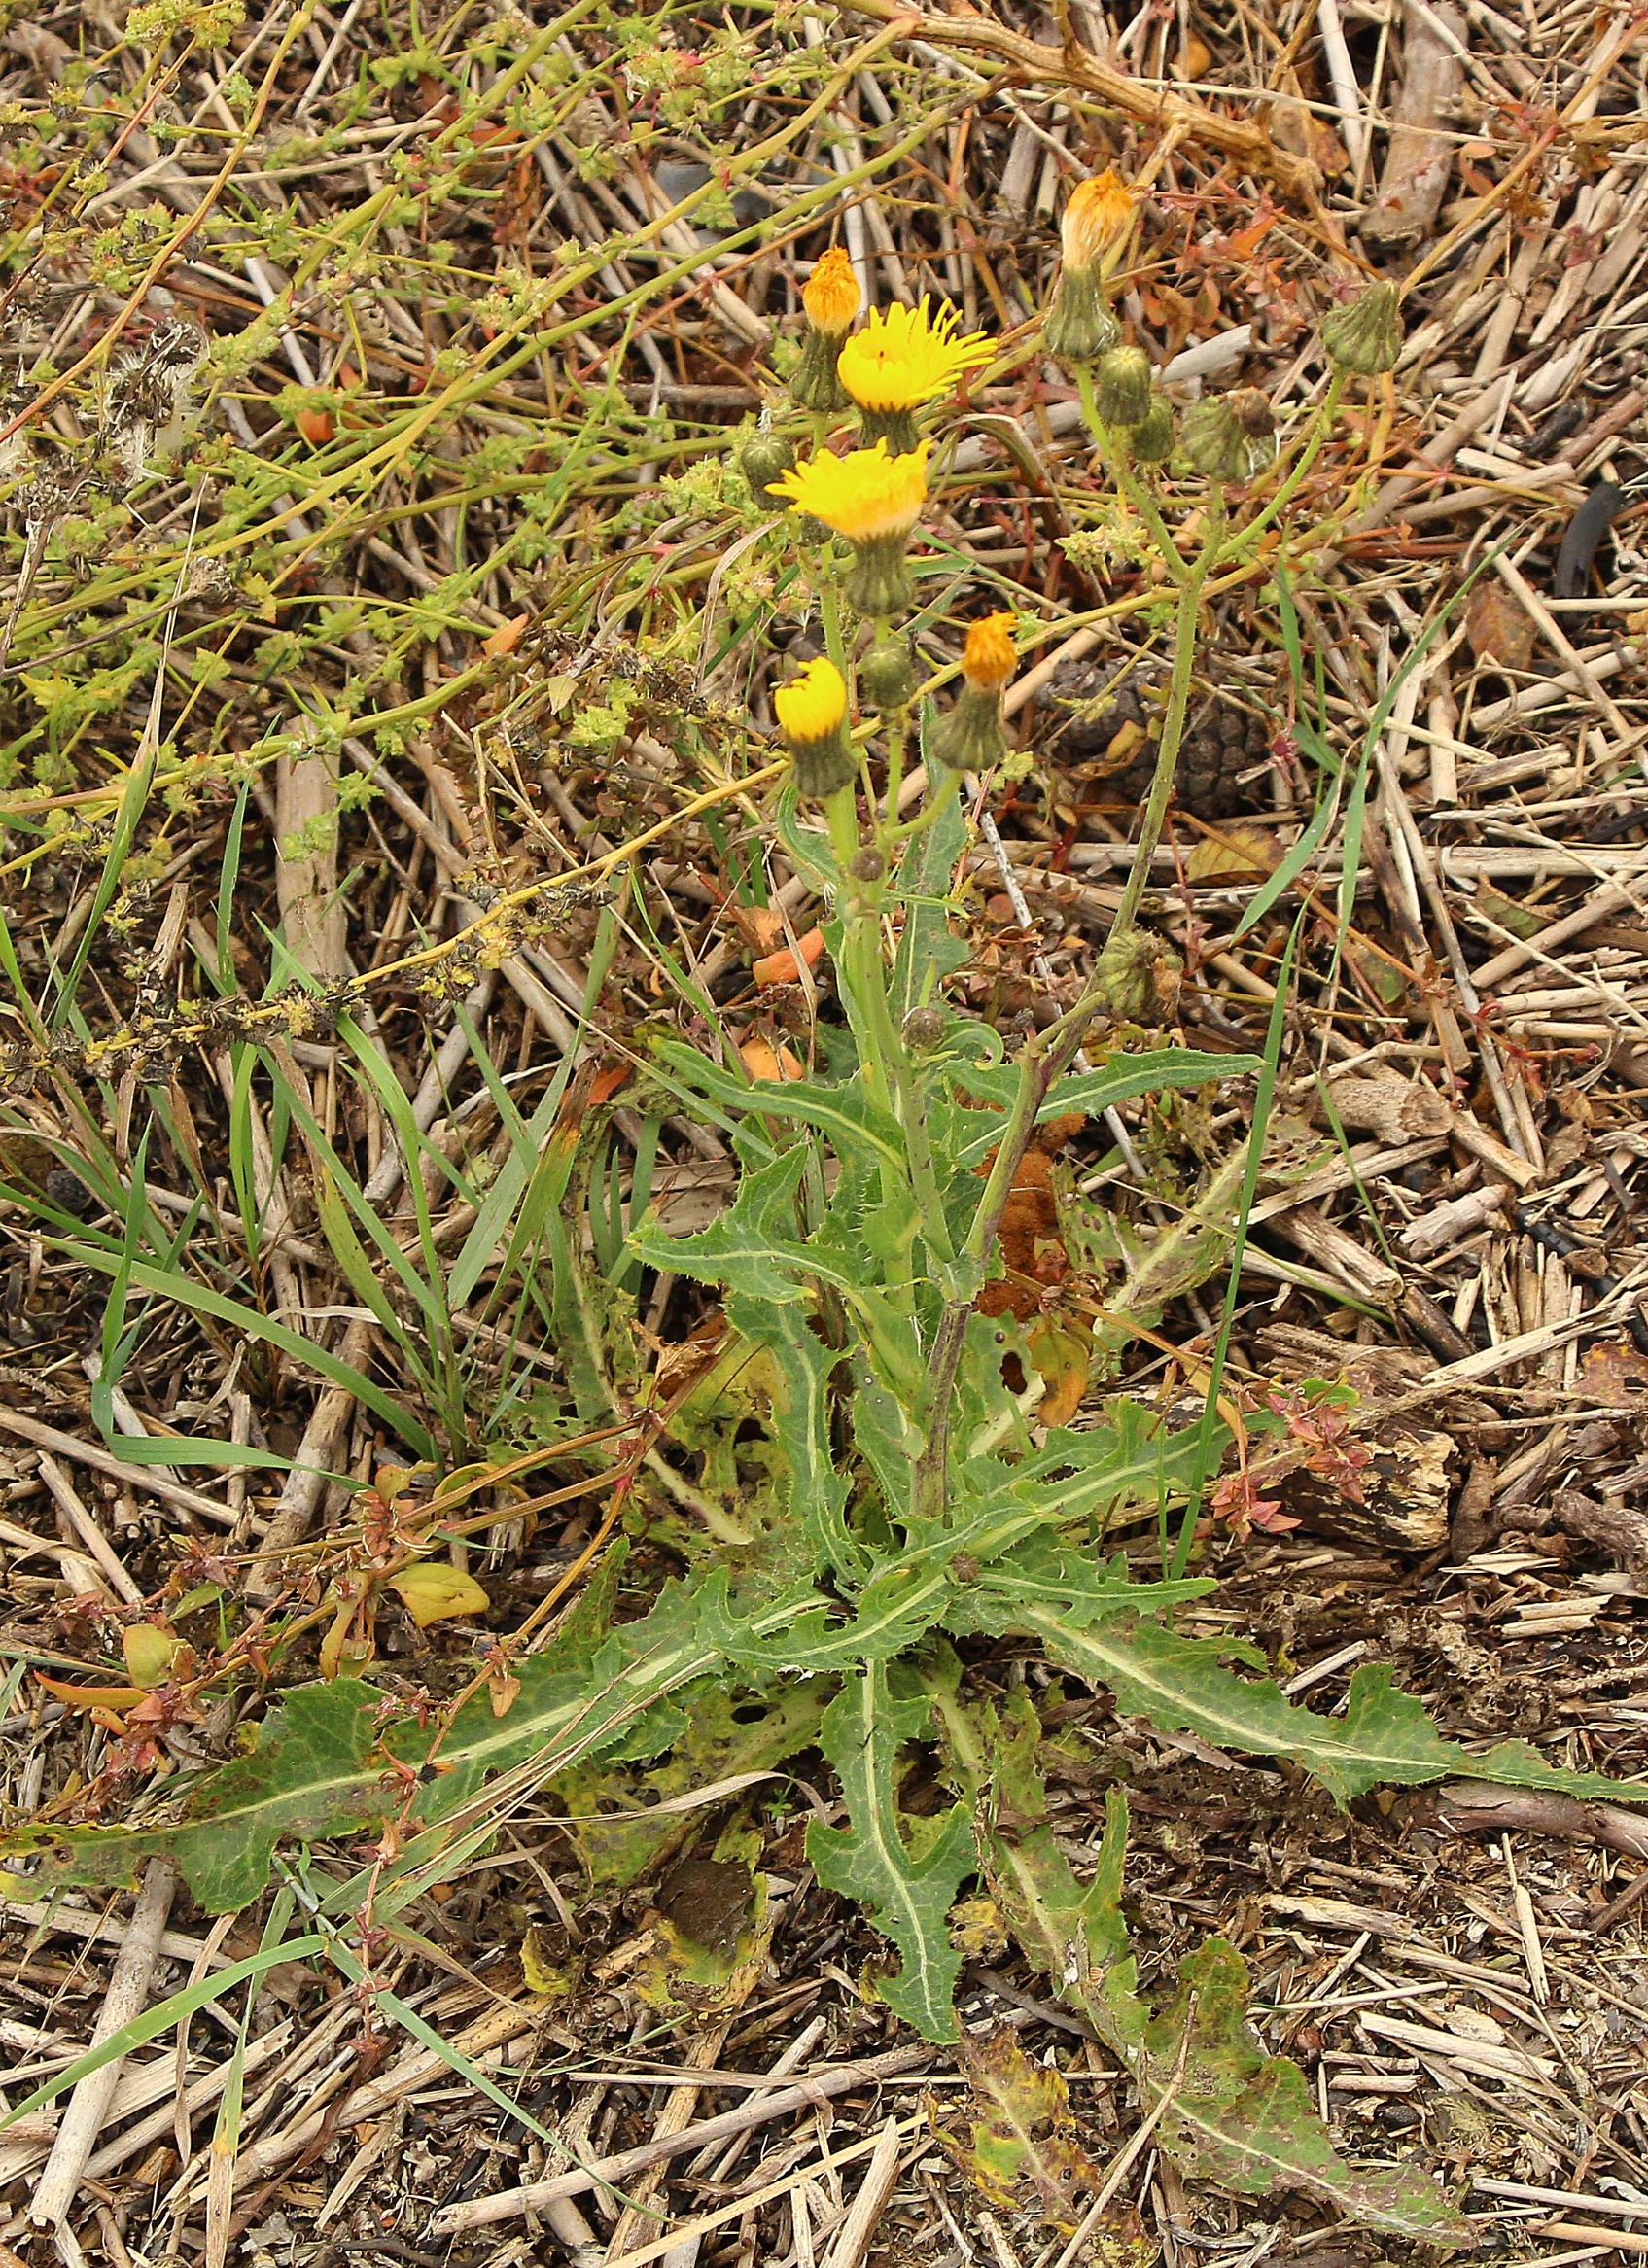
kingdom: Plantae
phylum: Tracheophyta
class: Magnoliopsida
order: Asterales
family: Asteraceae
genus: Sonchus
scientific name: Sonchus arvensis
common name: Ager-svinemælk
